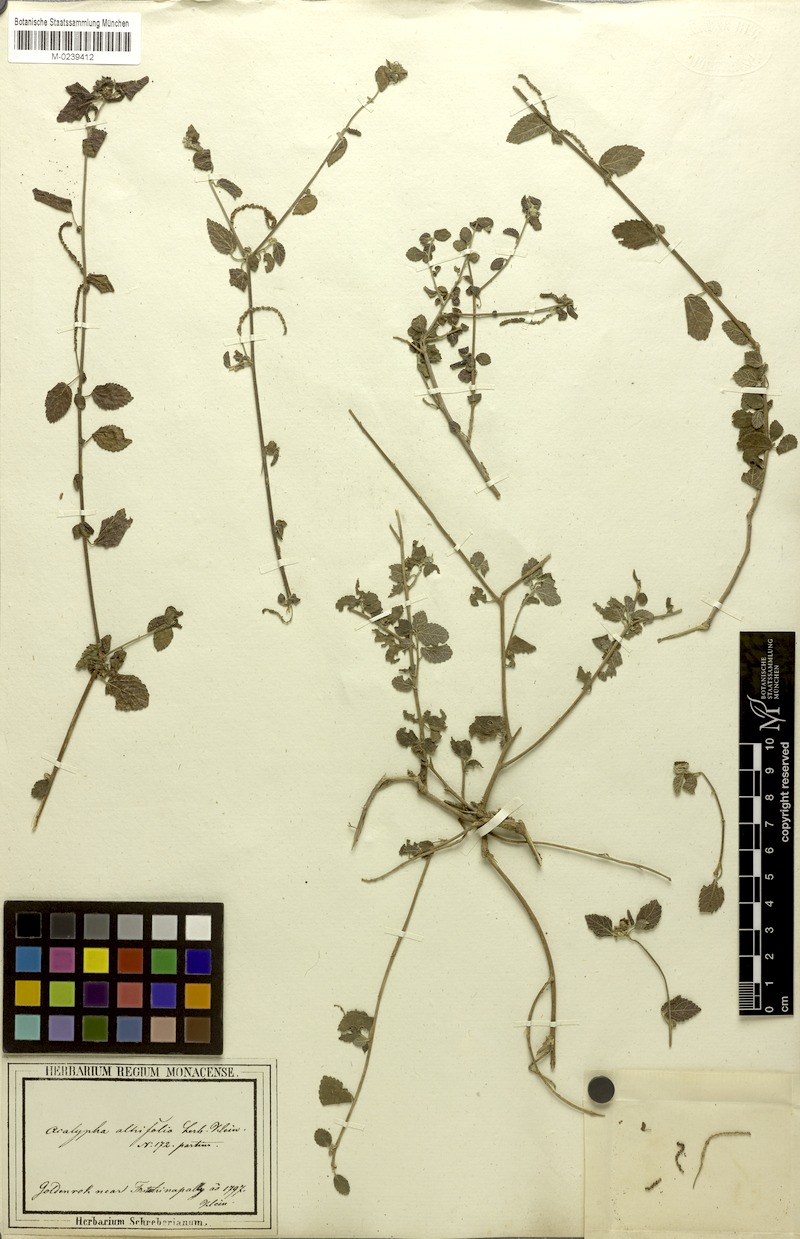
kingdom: Plantae
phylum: Tracheophyta
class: Magnoliopsida
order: Malpighiales
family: Euphorbiaceae
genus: Acalypha
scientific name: Acalypha capitata
